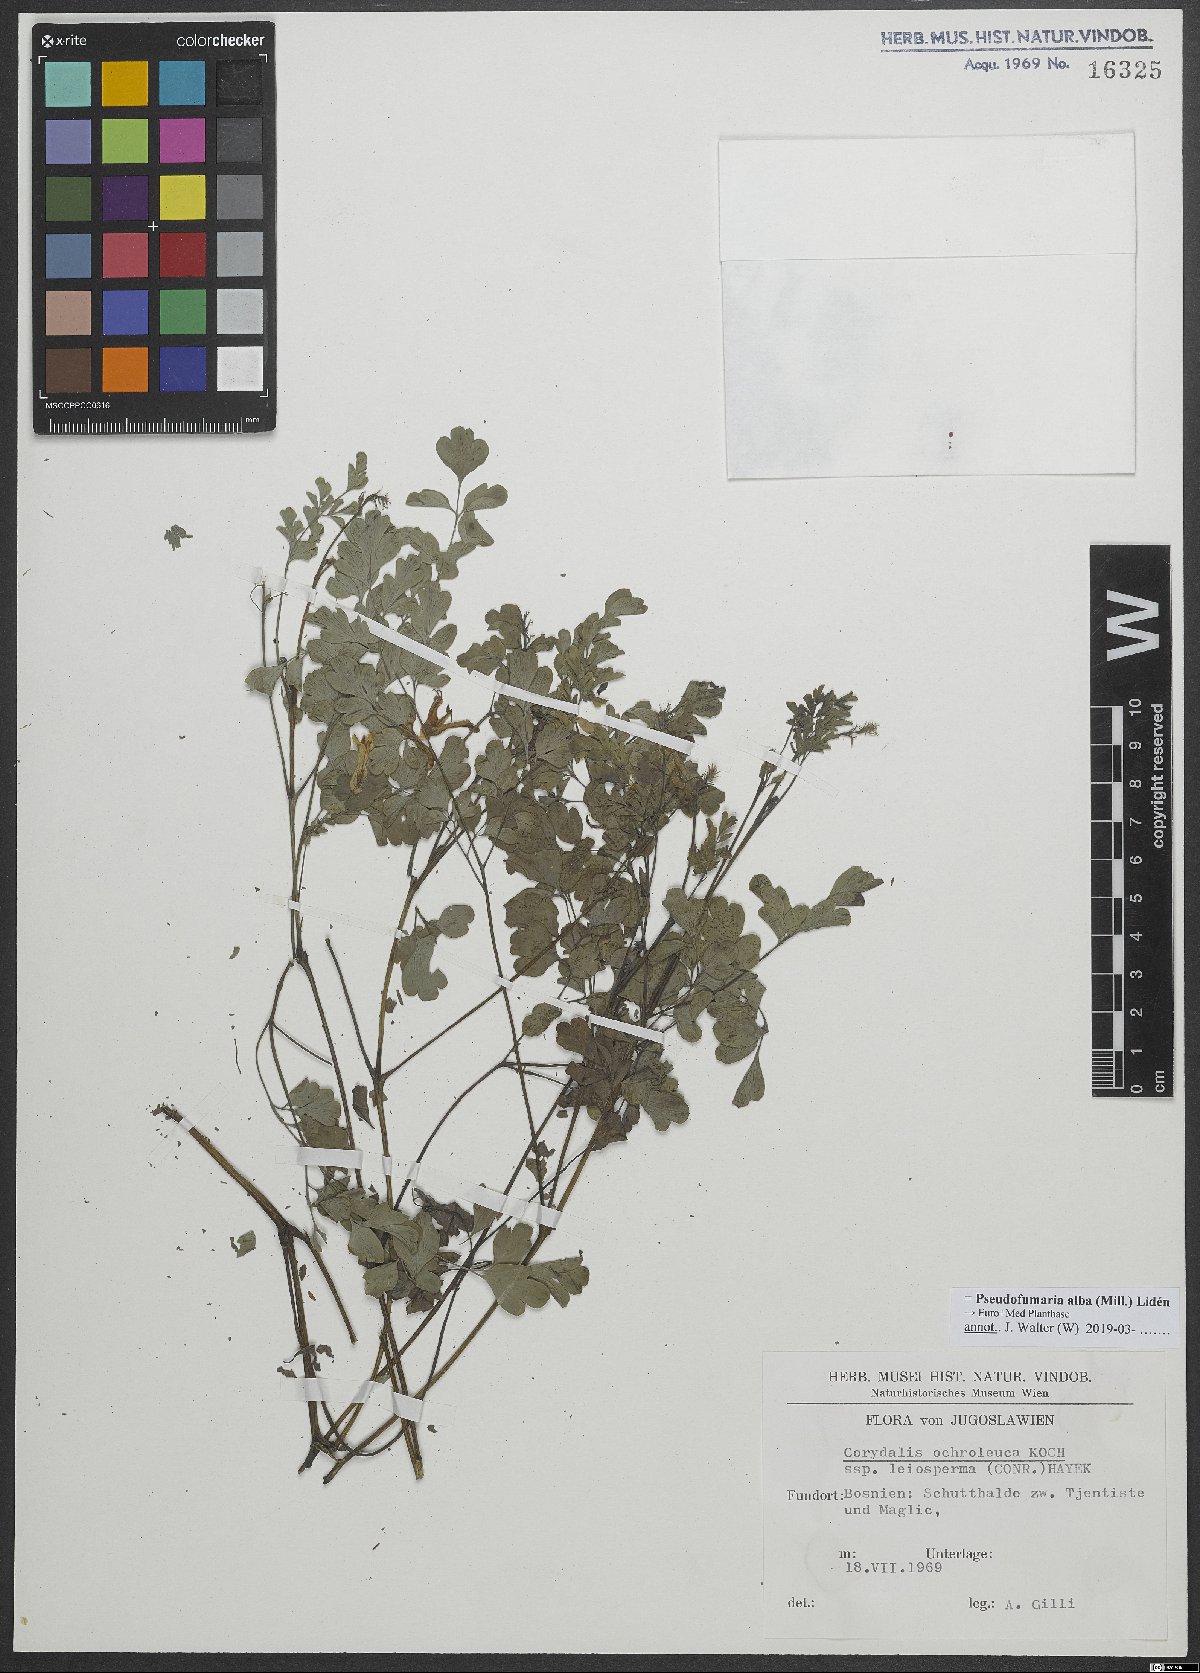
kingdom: Plantae
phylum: Tracheophyta
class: Magnoliopsida
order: Ranunculales
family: Papaveraceae
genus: Pseudofumaria
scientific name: Pseudofumaria alba
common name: Pale corydalis
